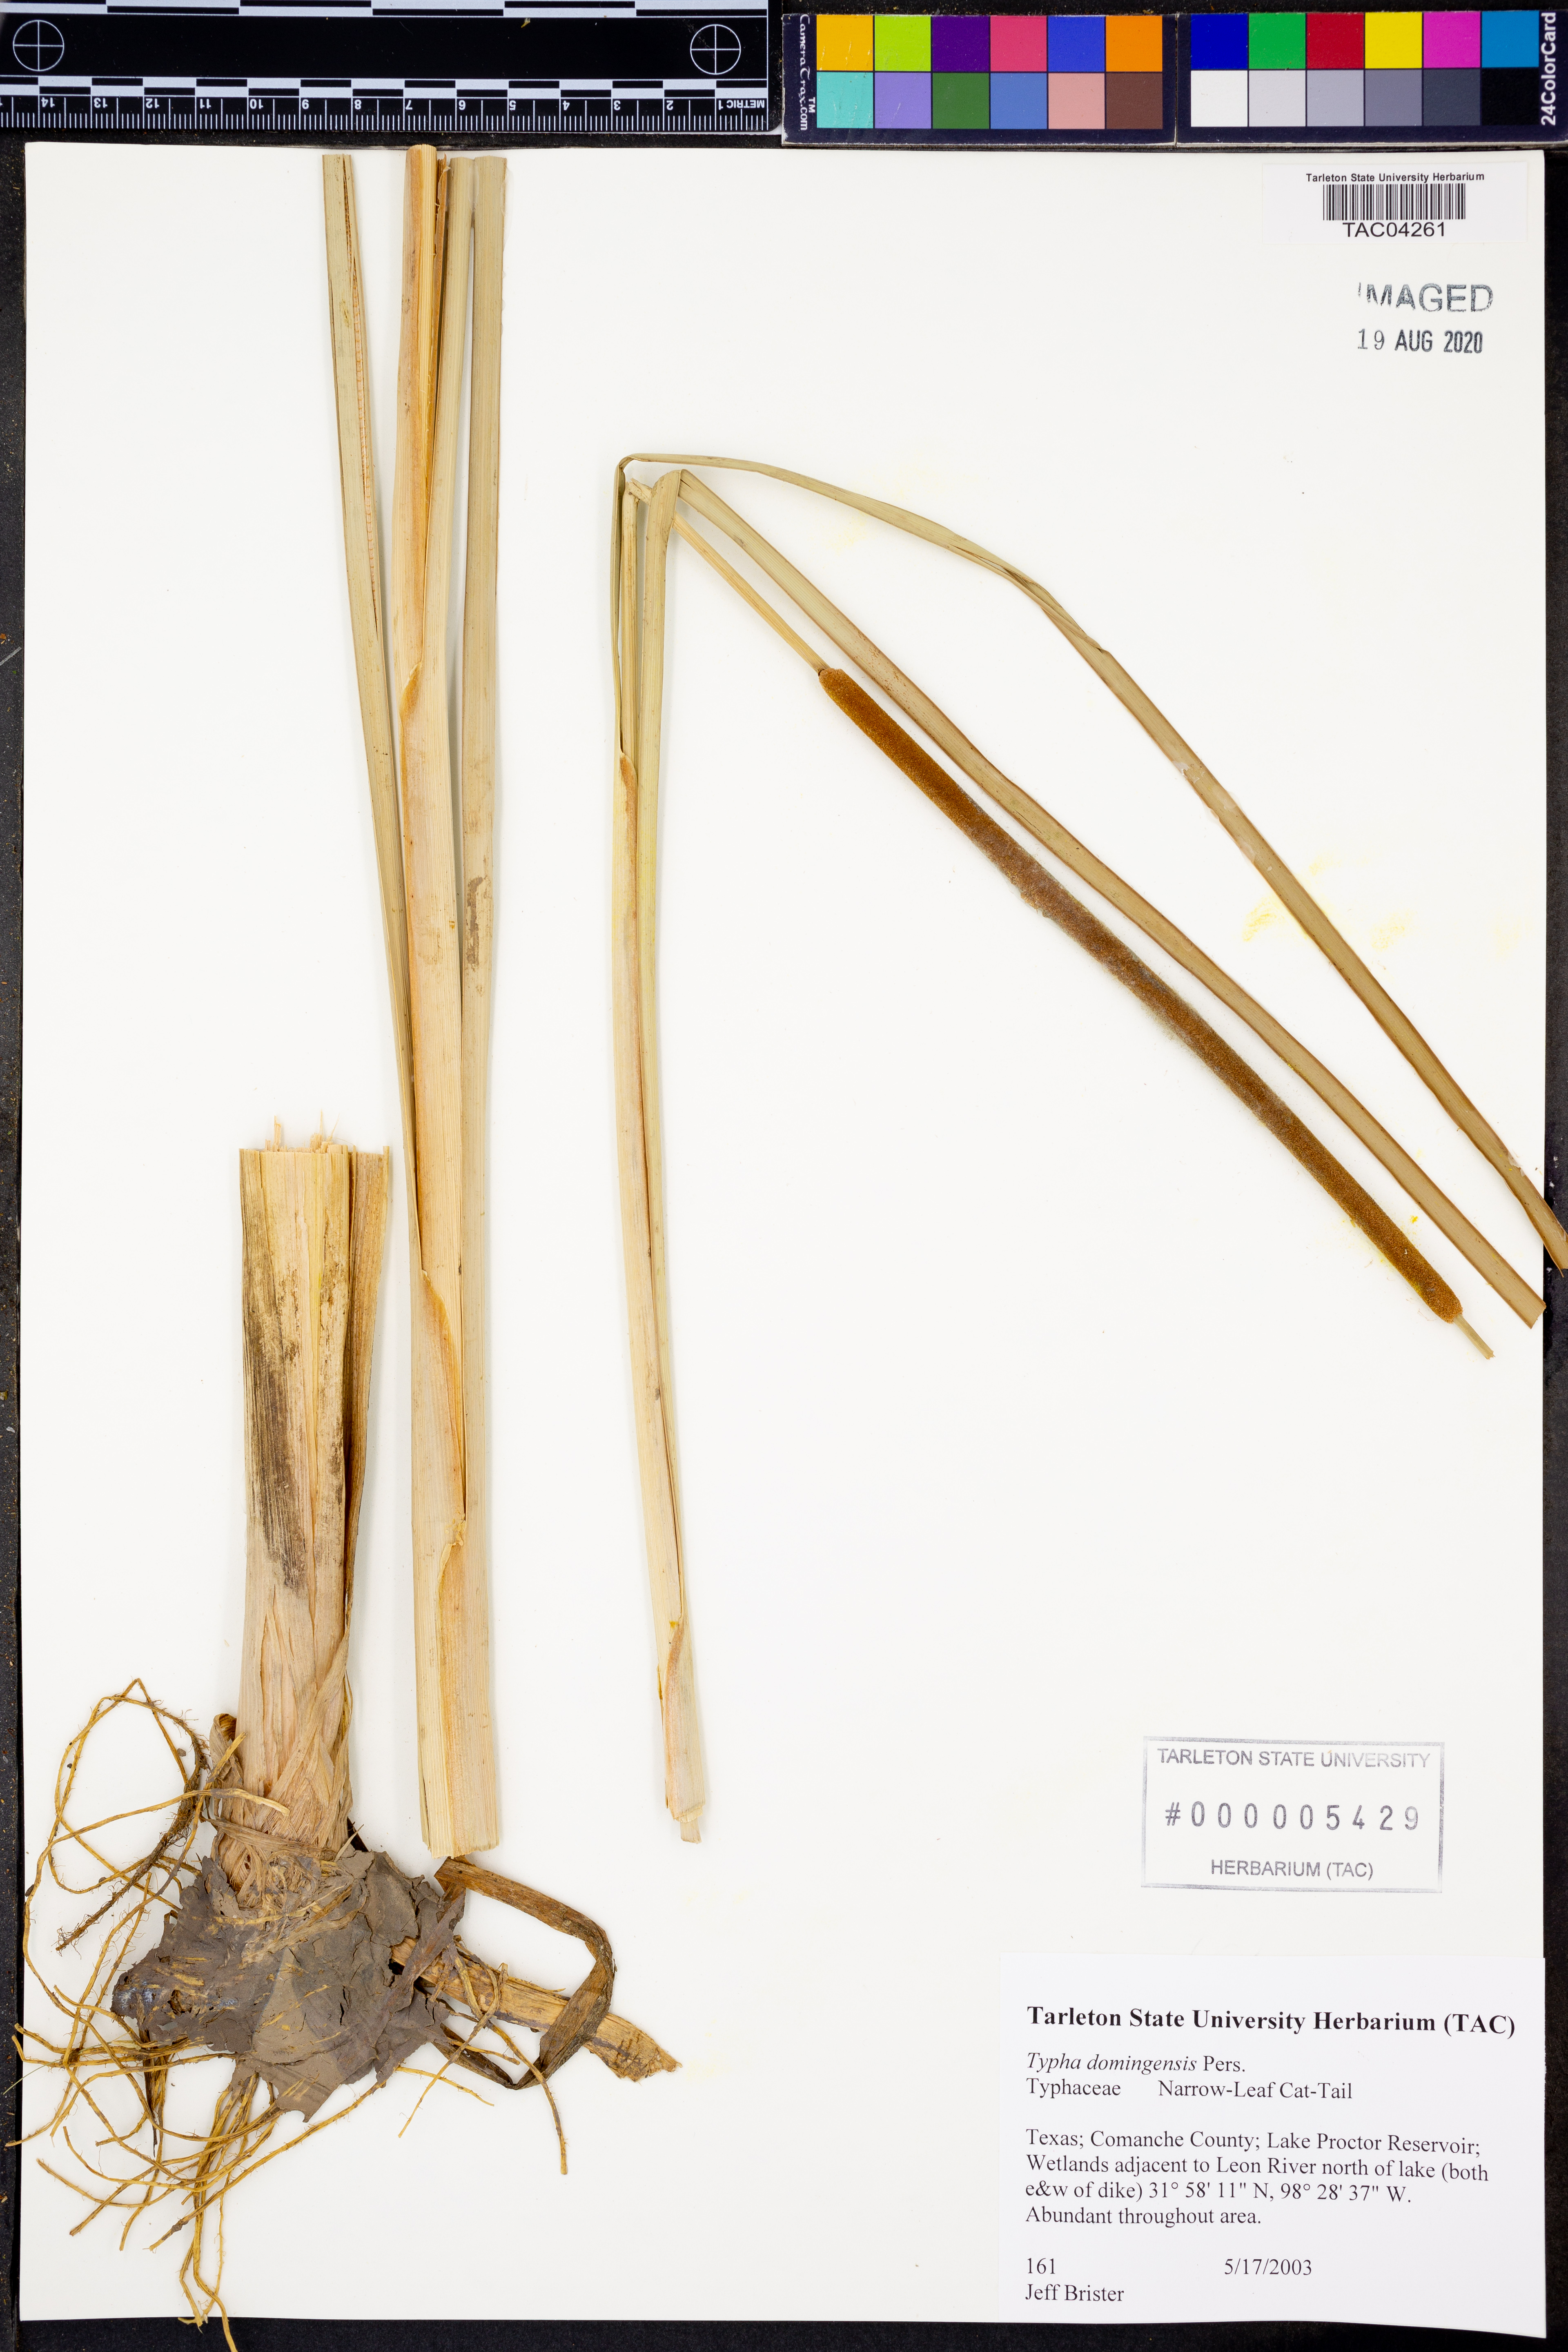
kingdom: Plantae
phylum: Tracheophyta
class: Liliopsida
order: Poales
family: Typhaceae
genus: Typha
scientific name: Typha domingensis
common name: Southern cattail
